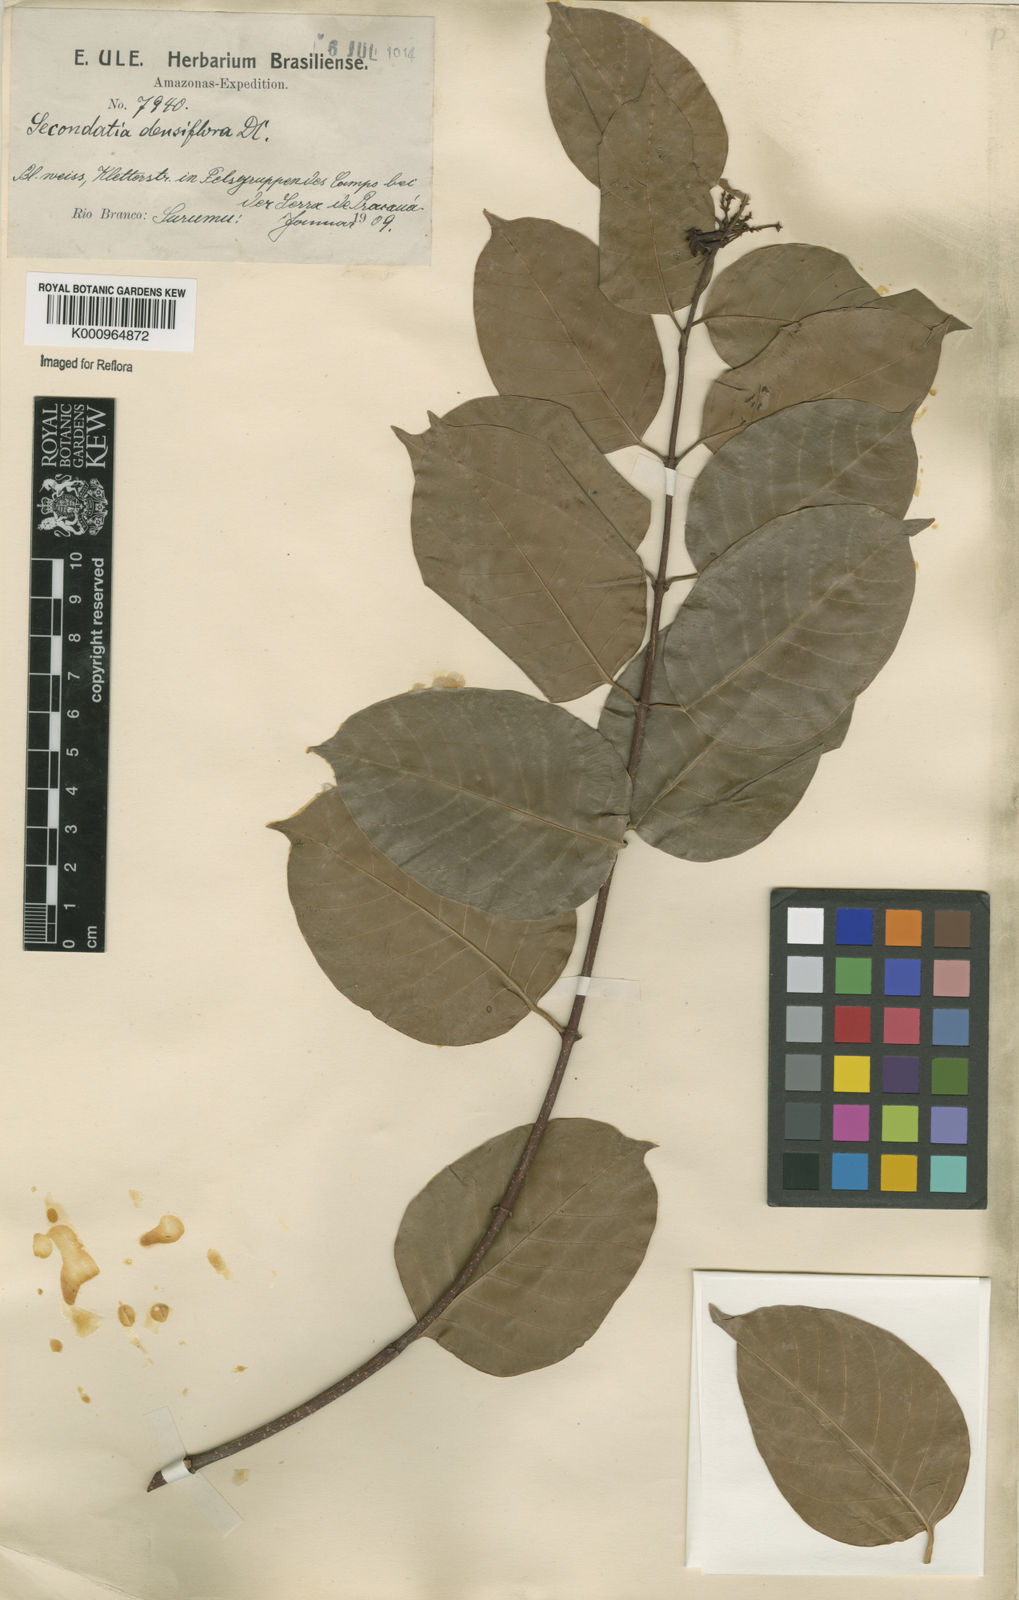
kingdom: Plantae
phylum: Tracheophyta
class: Magnoliopsida
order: Gentianales
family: Apocynaceae
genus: Secondatia
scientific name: Secondatia densiflora
